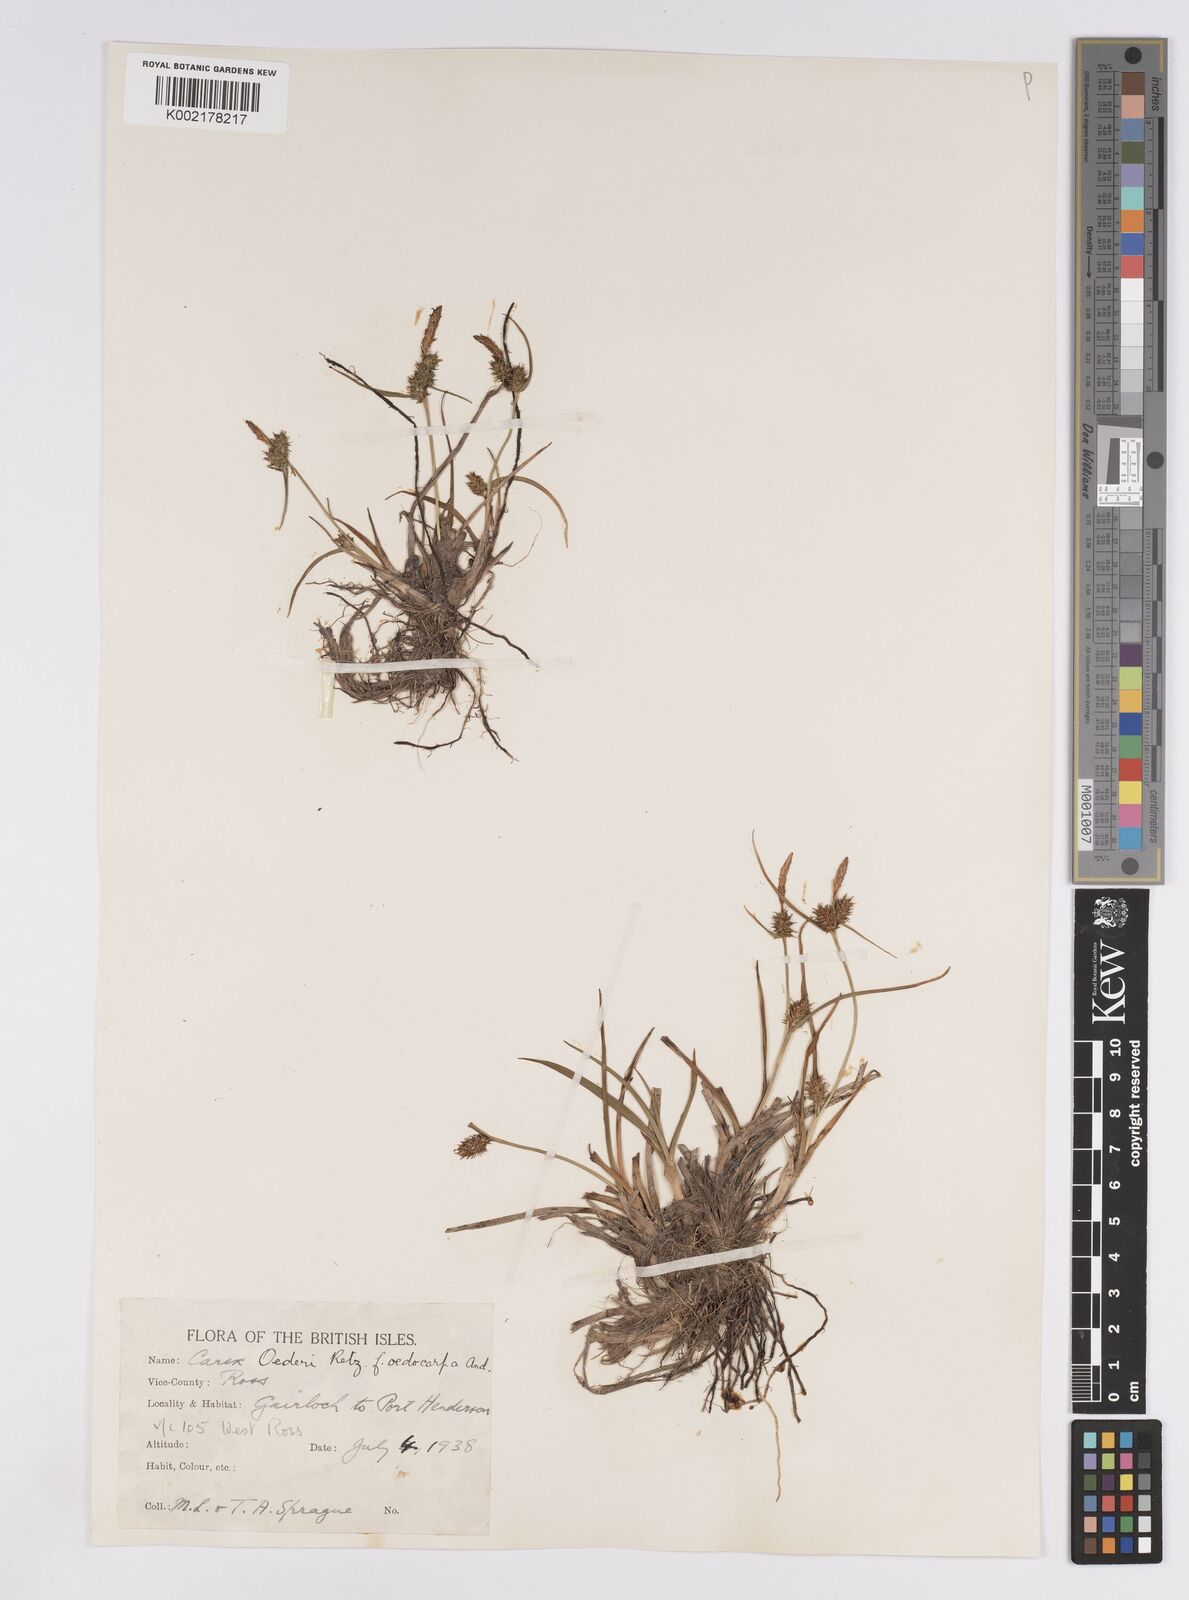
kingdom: Plantae
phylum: Tracheophyta
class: Liliopsida
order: Poales
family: Cyperaceae
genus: Carex
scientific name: Carex demissa
